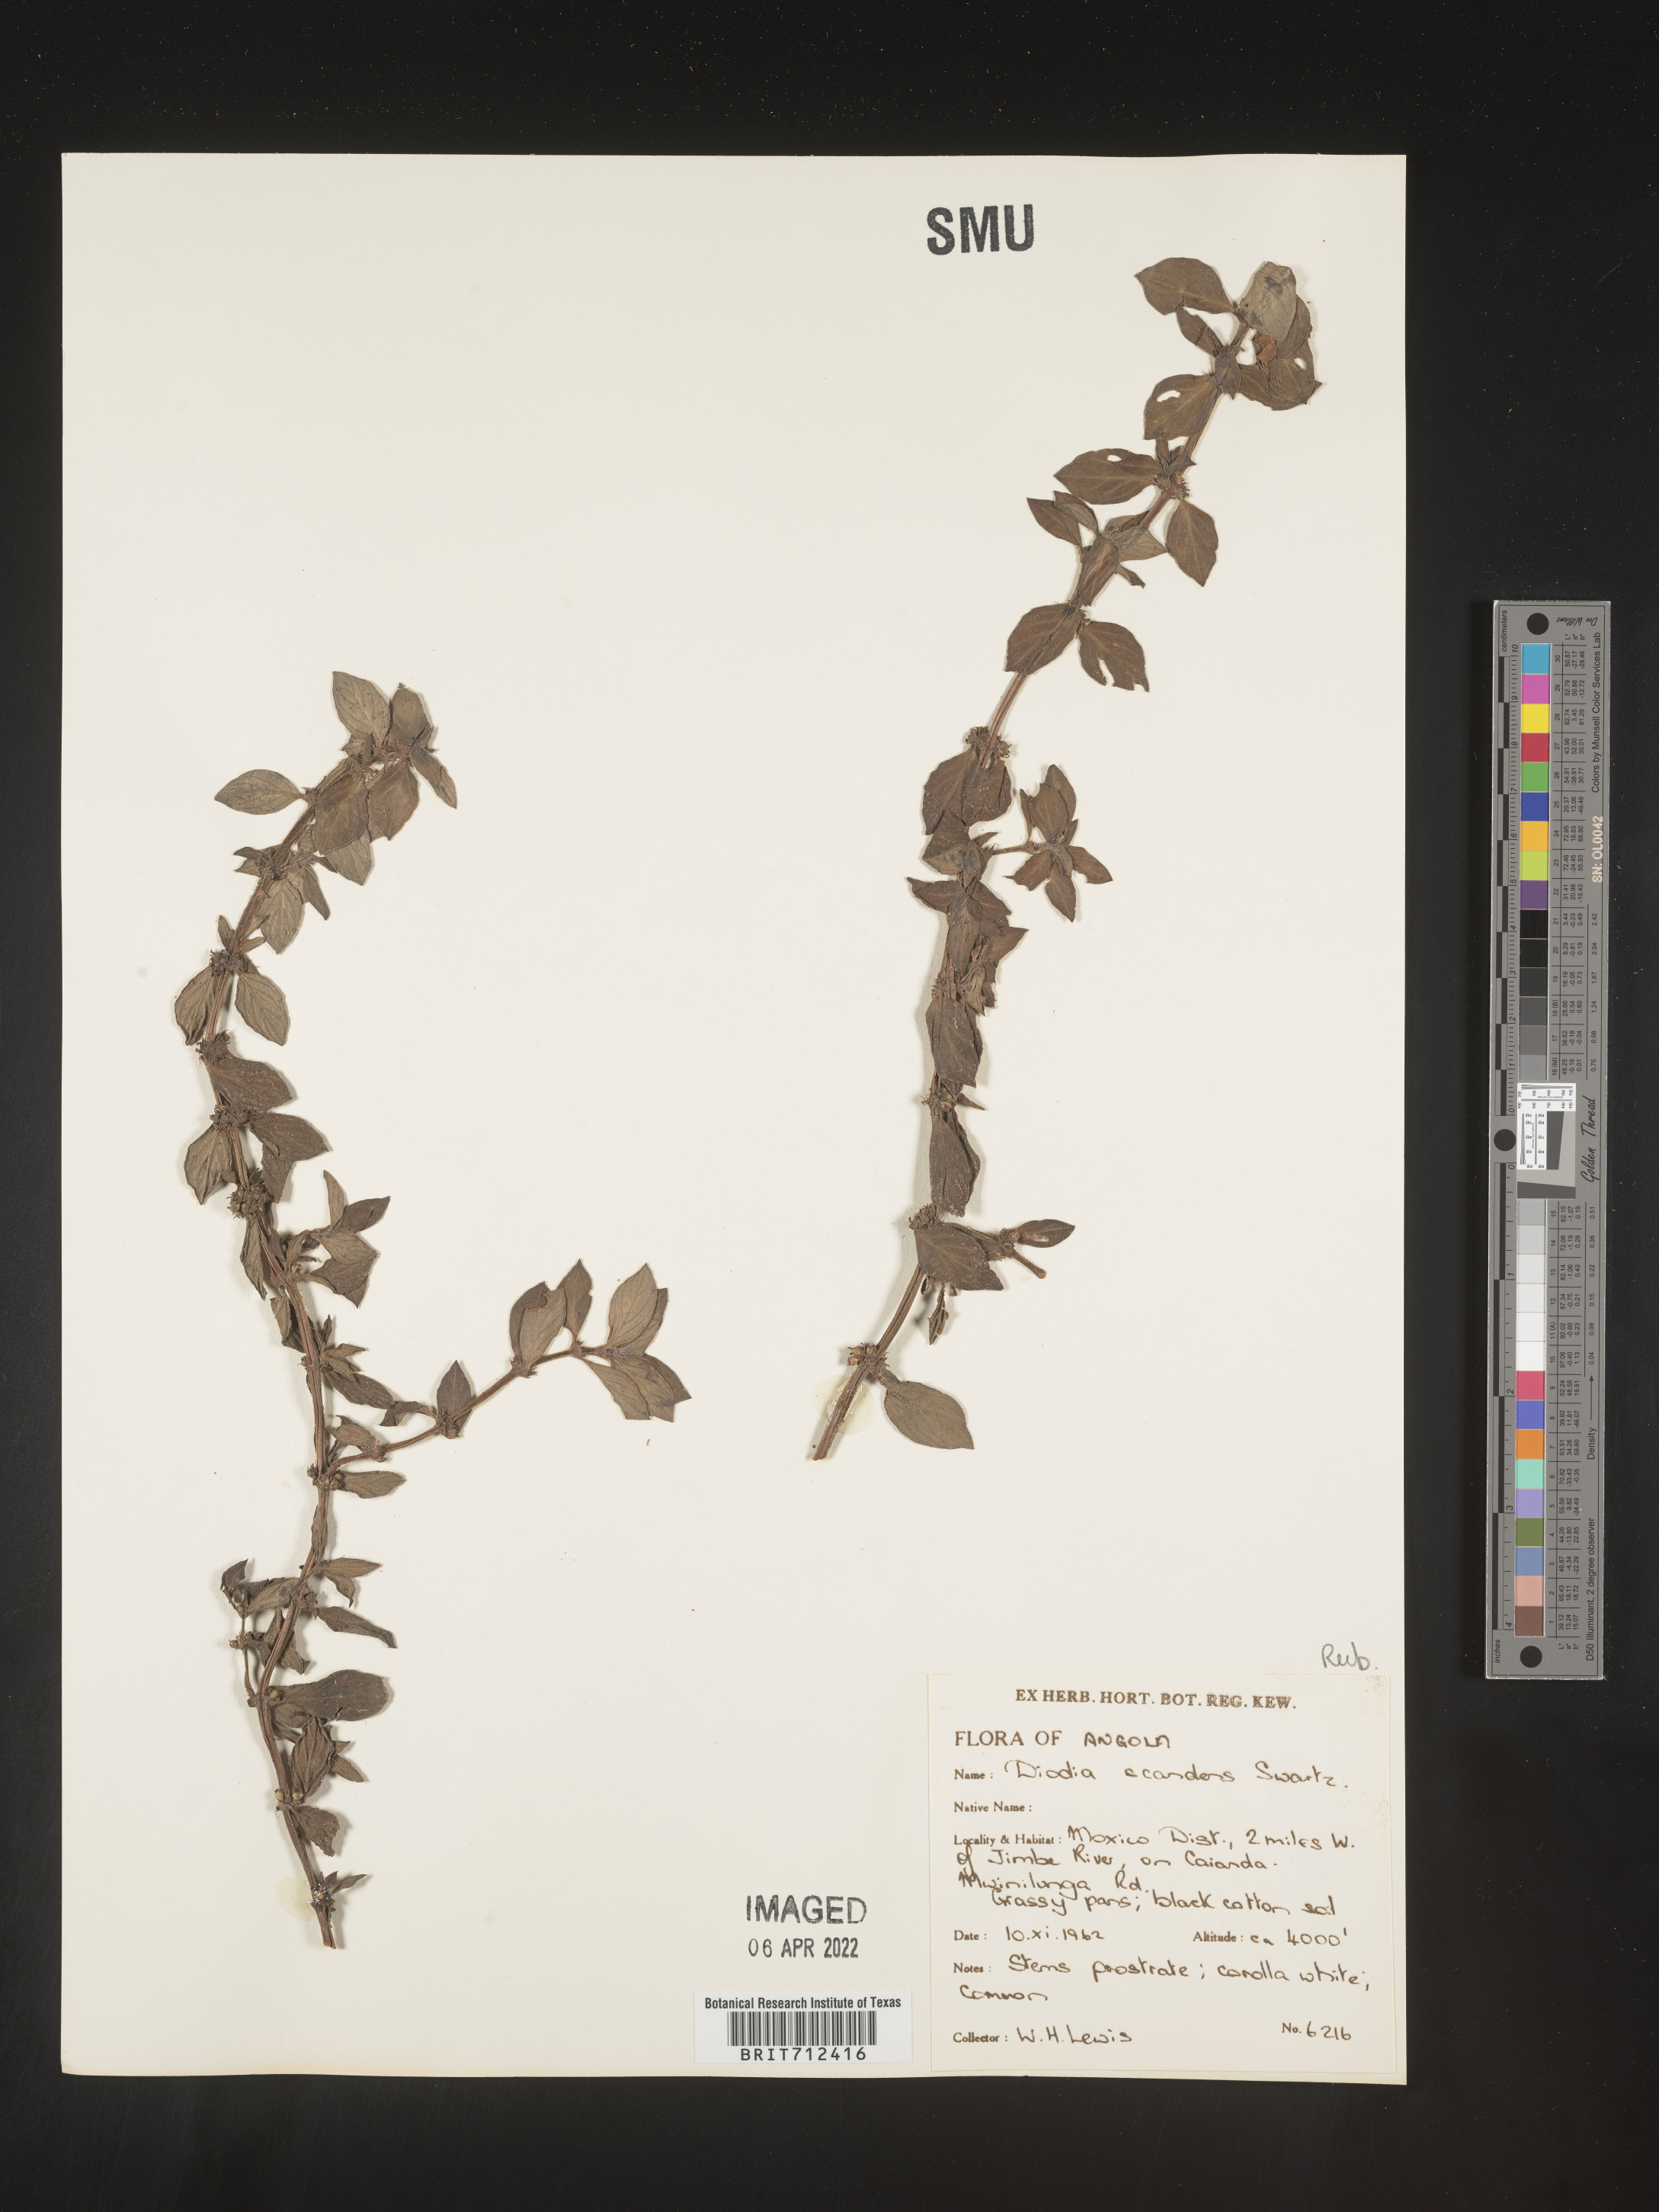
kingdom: Plantae
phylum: Tracheophyta
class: Magnoliopsida
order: Gentianales
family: Rubiaceae
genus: Diodia
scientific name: Diodia
